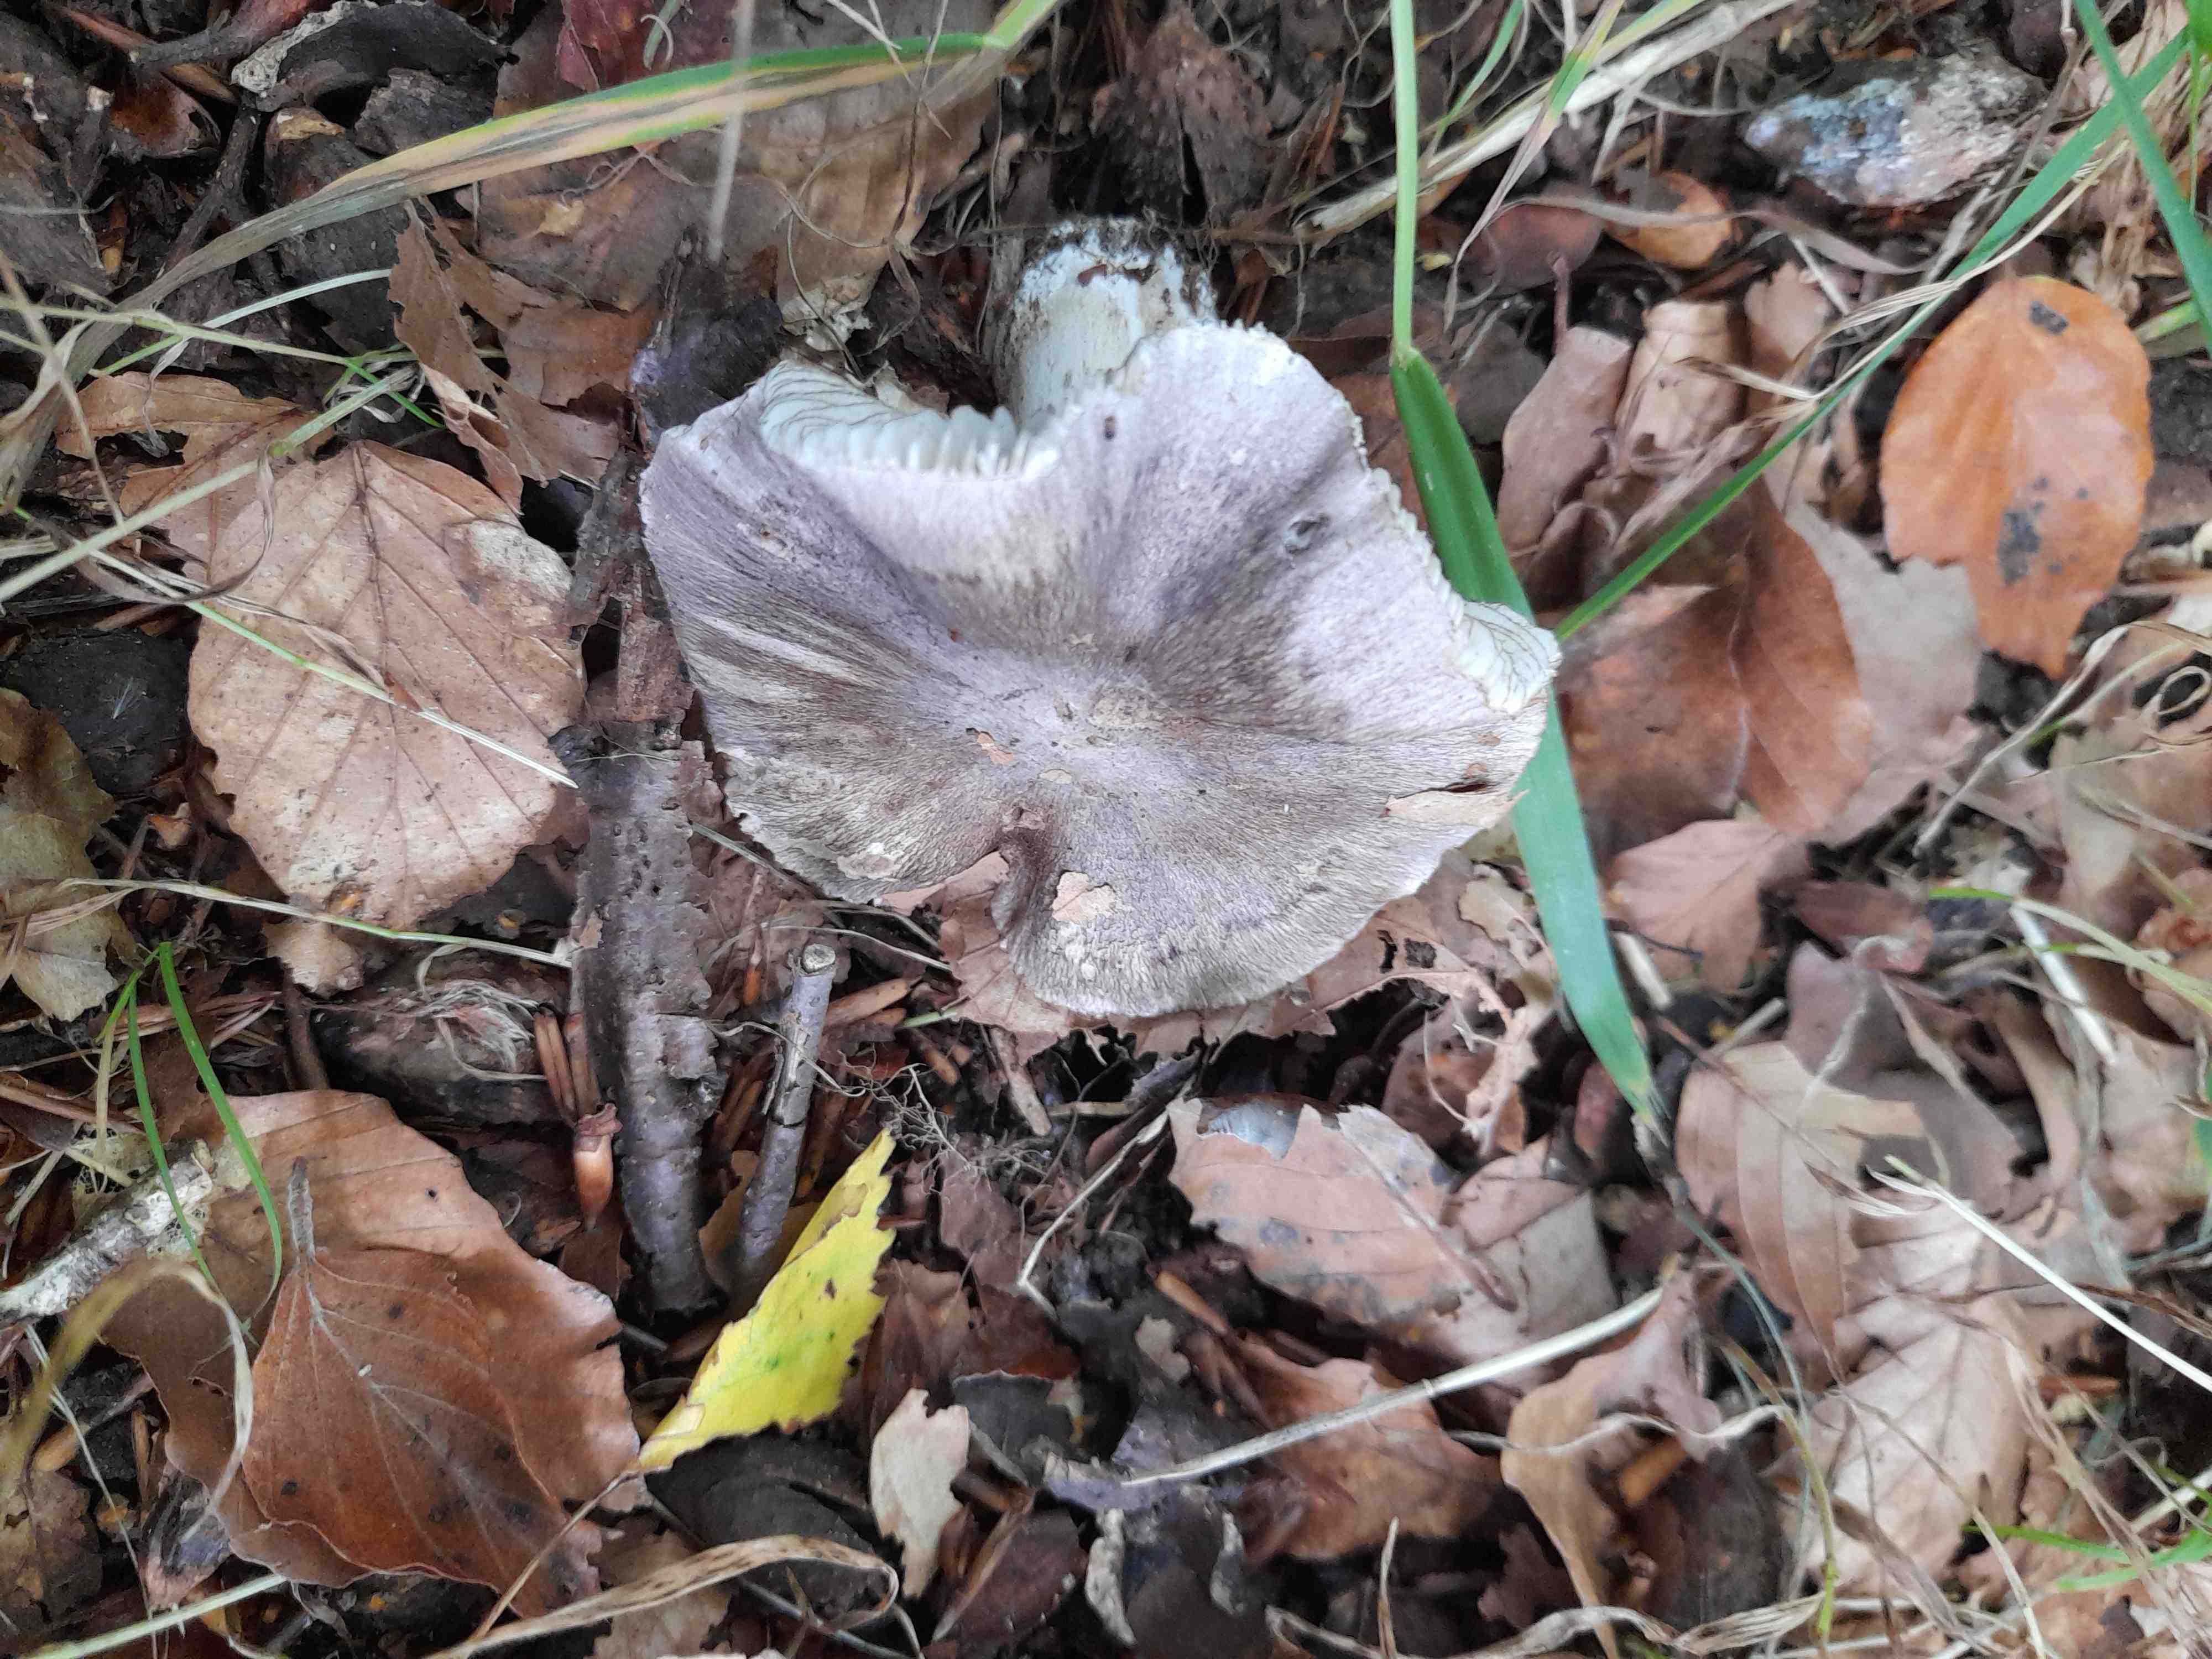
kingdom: Fungi
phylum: Basidiomycota
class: Agaricomycetes
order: Agaricales
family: Tricholomataceae
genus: Tricholoma
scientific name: Tricholoma sciodes
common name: stribet ridderhat
